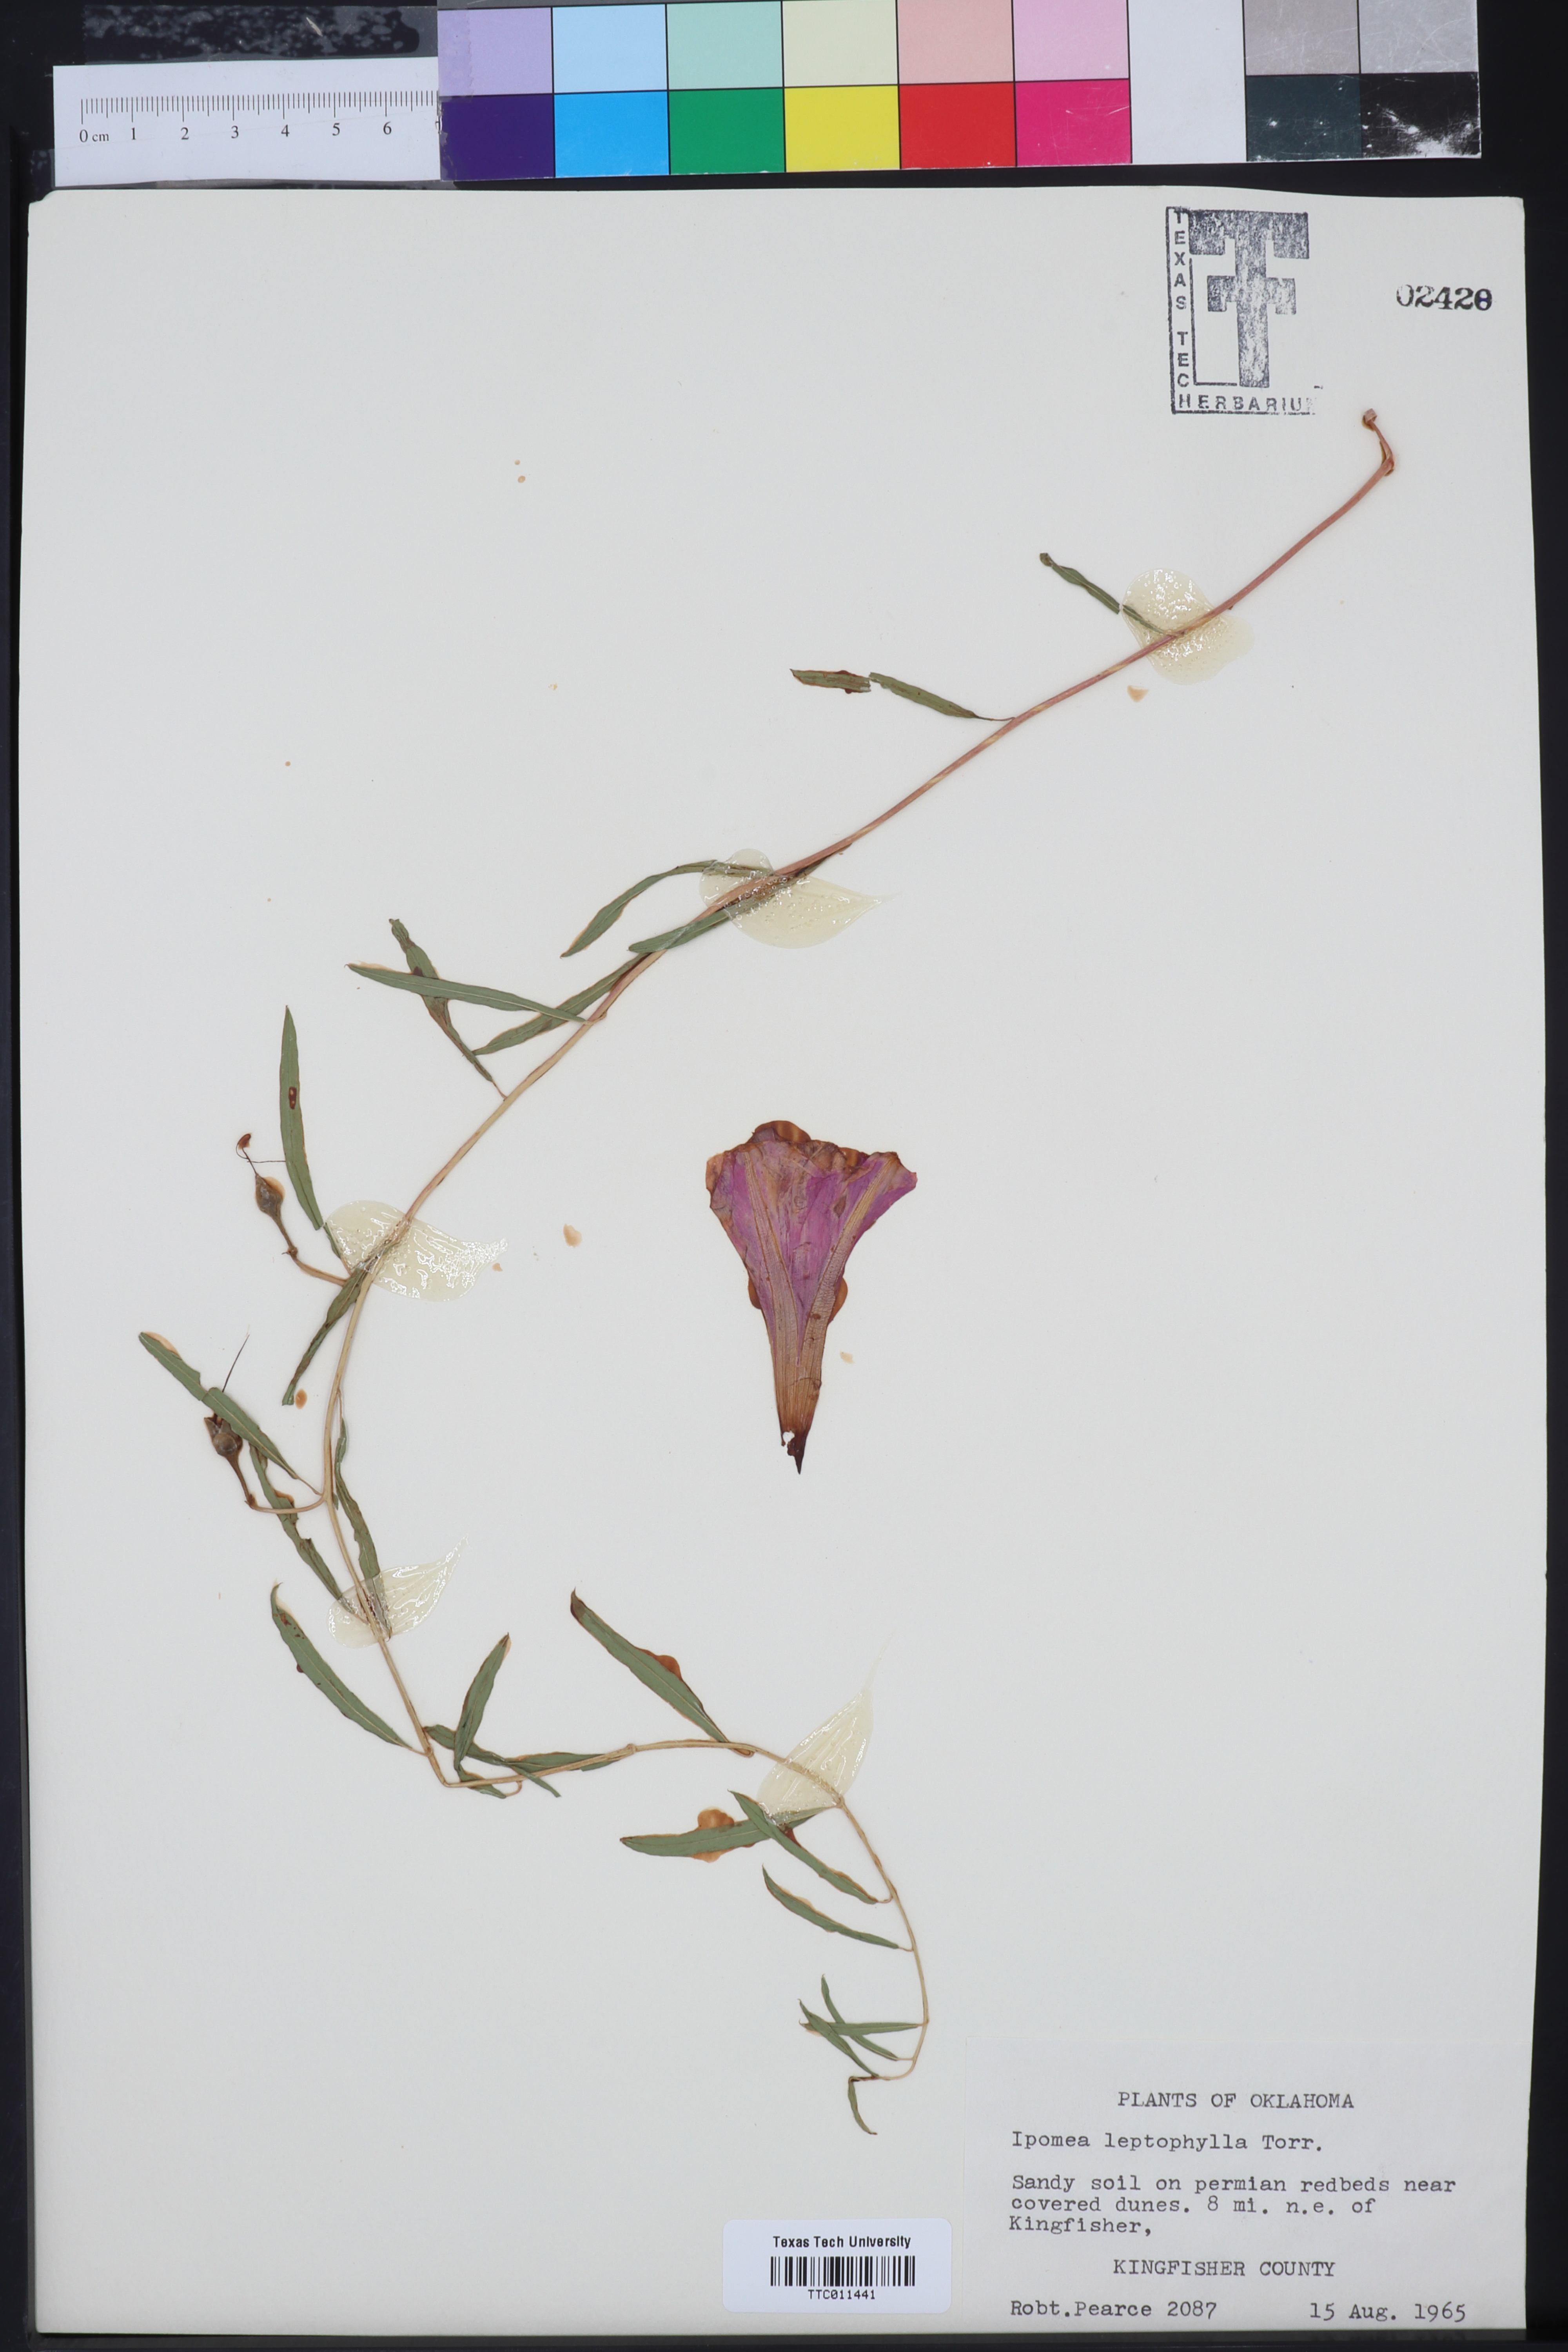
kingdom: Plantae
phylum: Tracheophyta
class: Magnoliopsida
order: Solanales
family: Convolvulaceae
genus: Ipomoea
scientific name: Ipomoea leptophylla
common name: Bush moonflower
